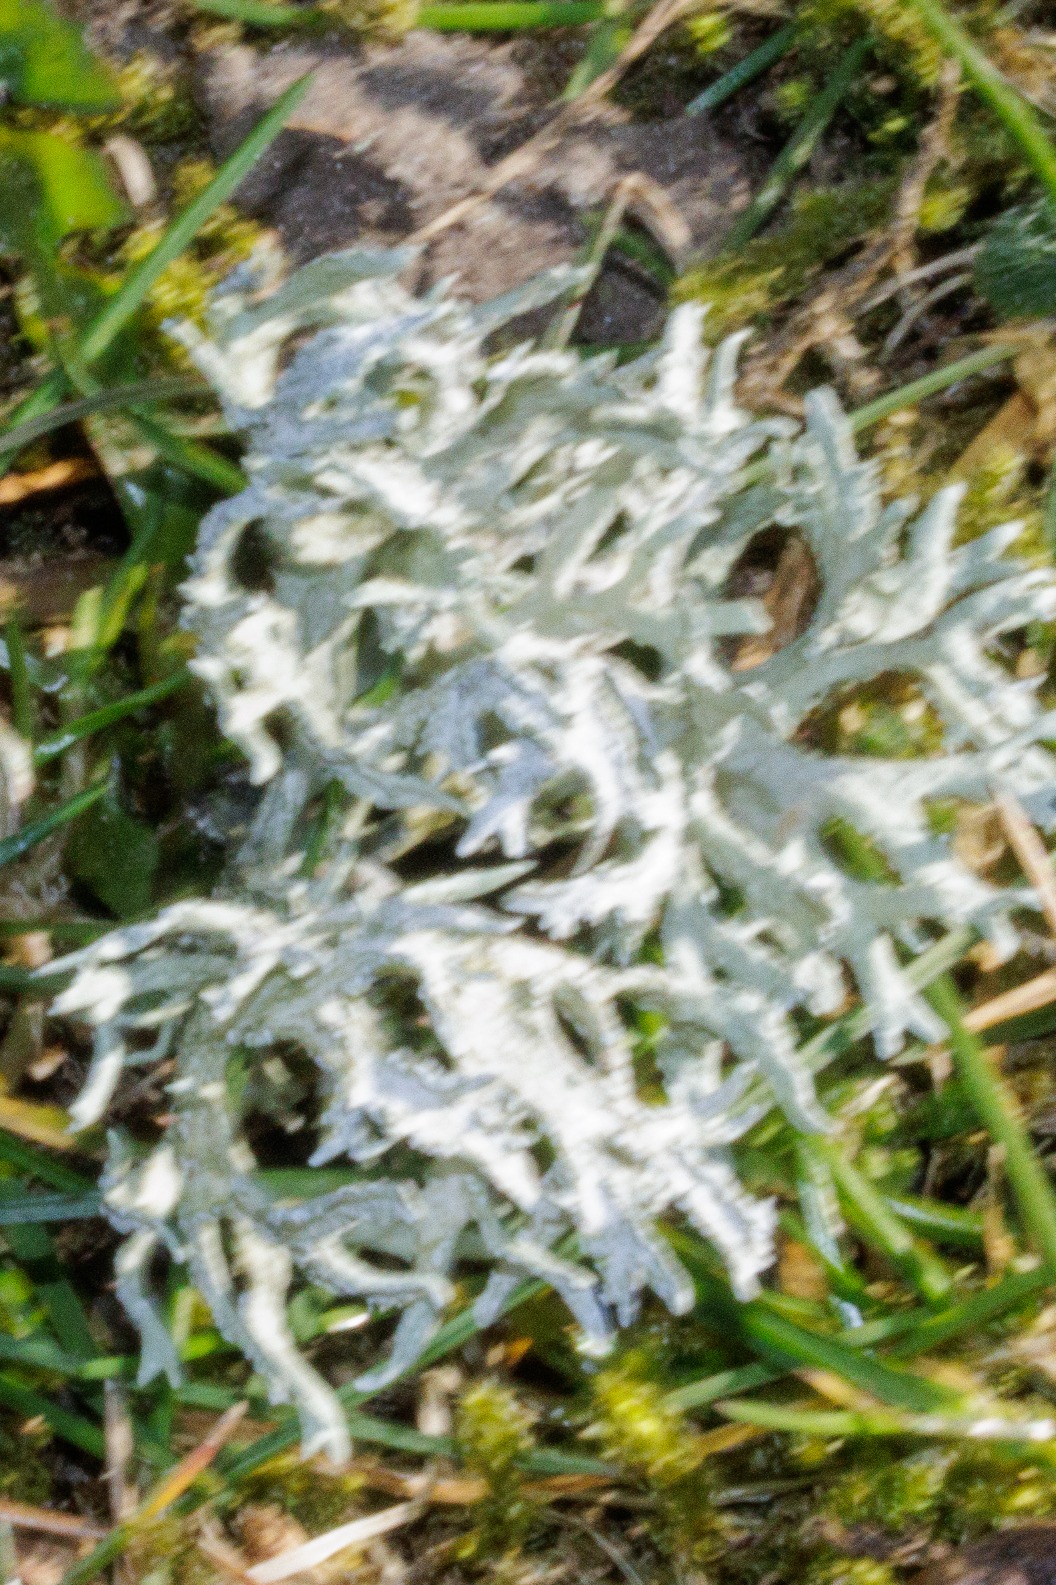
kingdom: Fungi
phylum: Ascomycota
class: Lecanoromycetes
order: Lecanorales
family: Parmeliaceae
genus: Evernia
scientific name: Evernia prunastri
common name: Almindelig slåenlav
